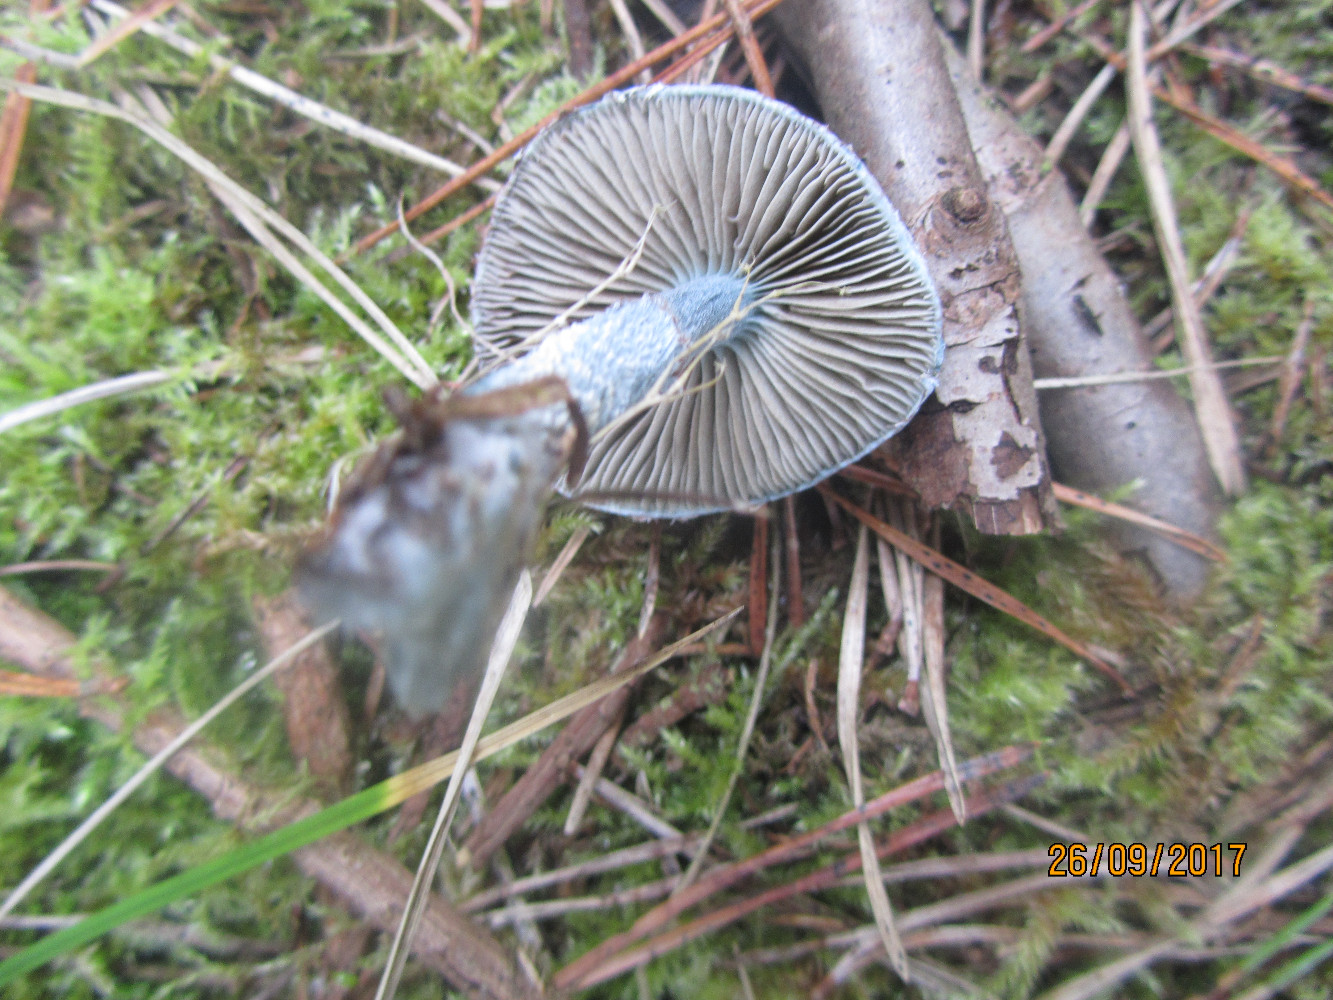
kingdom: Fungi
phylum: Basidiomycota
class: Agaricomycetes
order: Agaricales
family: Strophariaceae
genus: Stropharia
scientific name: Stropharia
